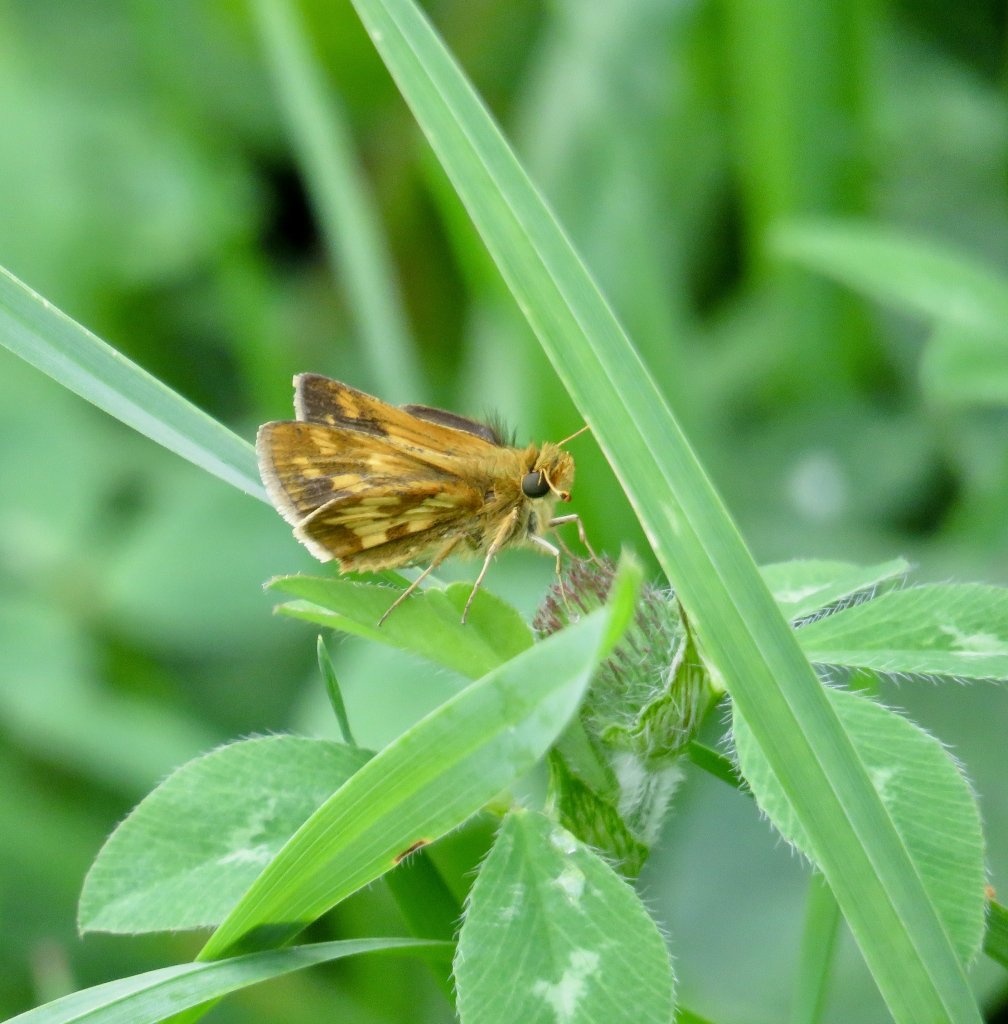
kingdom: Animalia
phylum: Arthropoda
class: Insecta
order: Lepidoptera
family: Hesperiidae
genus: Polites
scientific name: Polites coras
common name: Peck's Skipper
